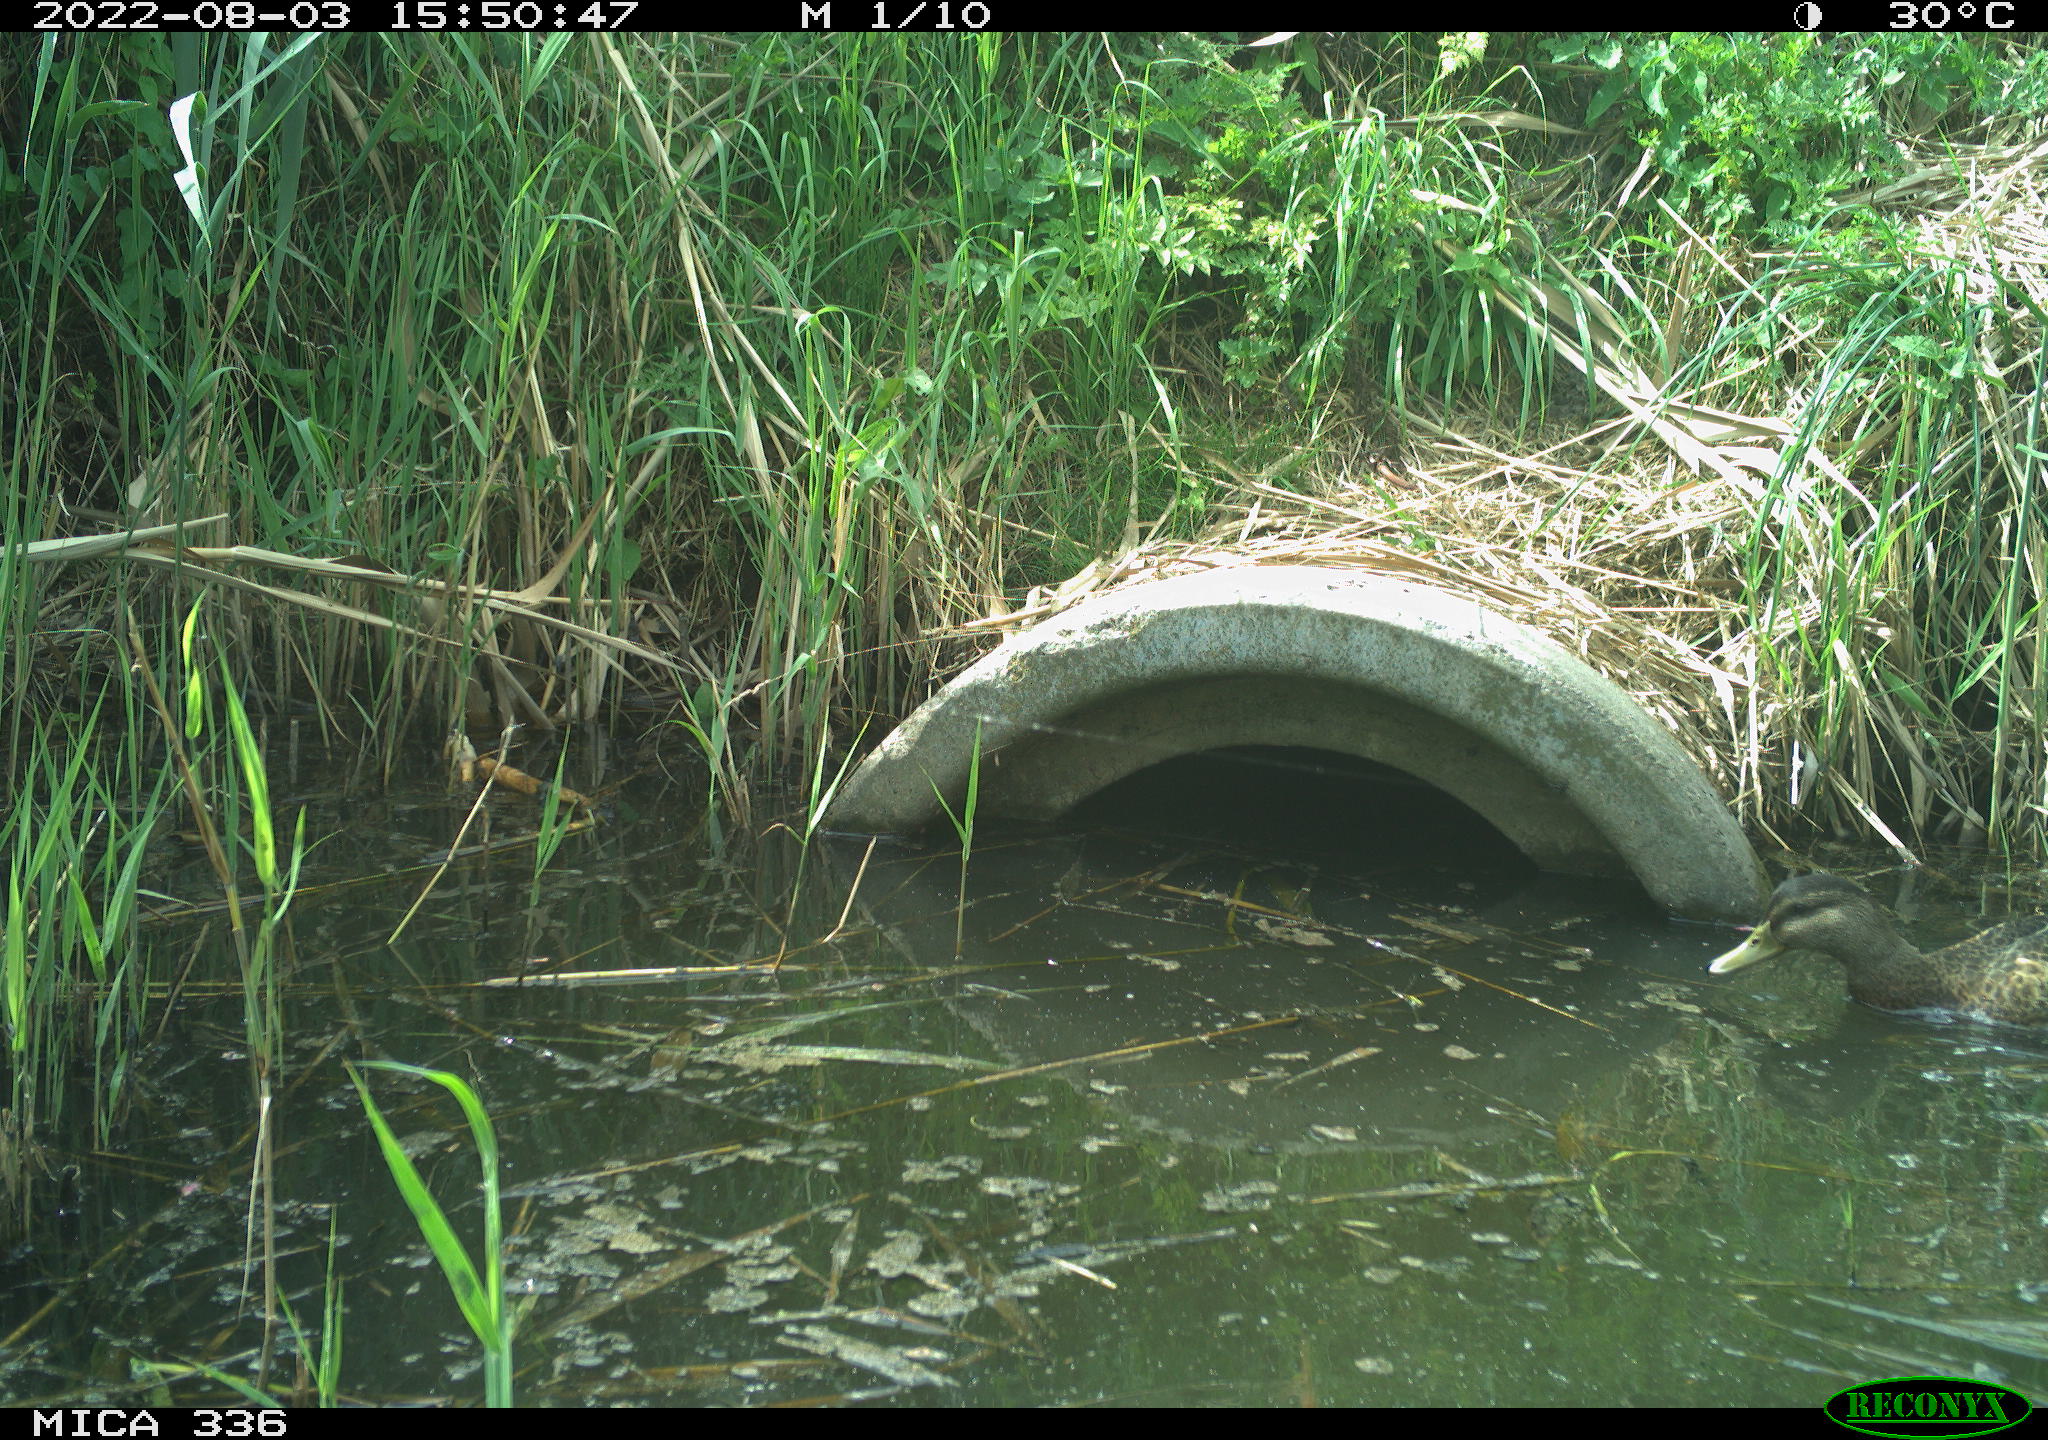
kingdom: Animalia
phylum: Chordata
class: Aves
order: Anseriformes
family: Anatidae
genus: Mareca
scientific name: Mareca strepera
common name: Gadwall
